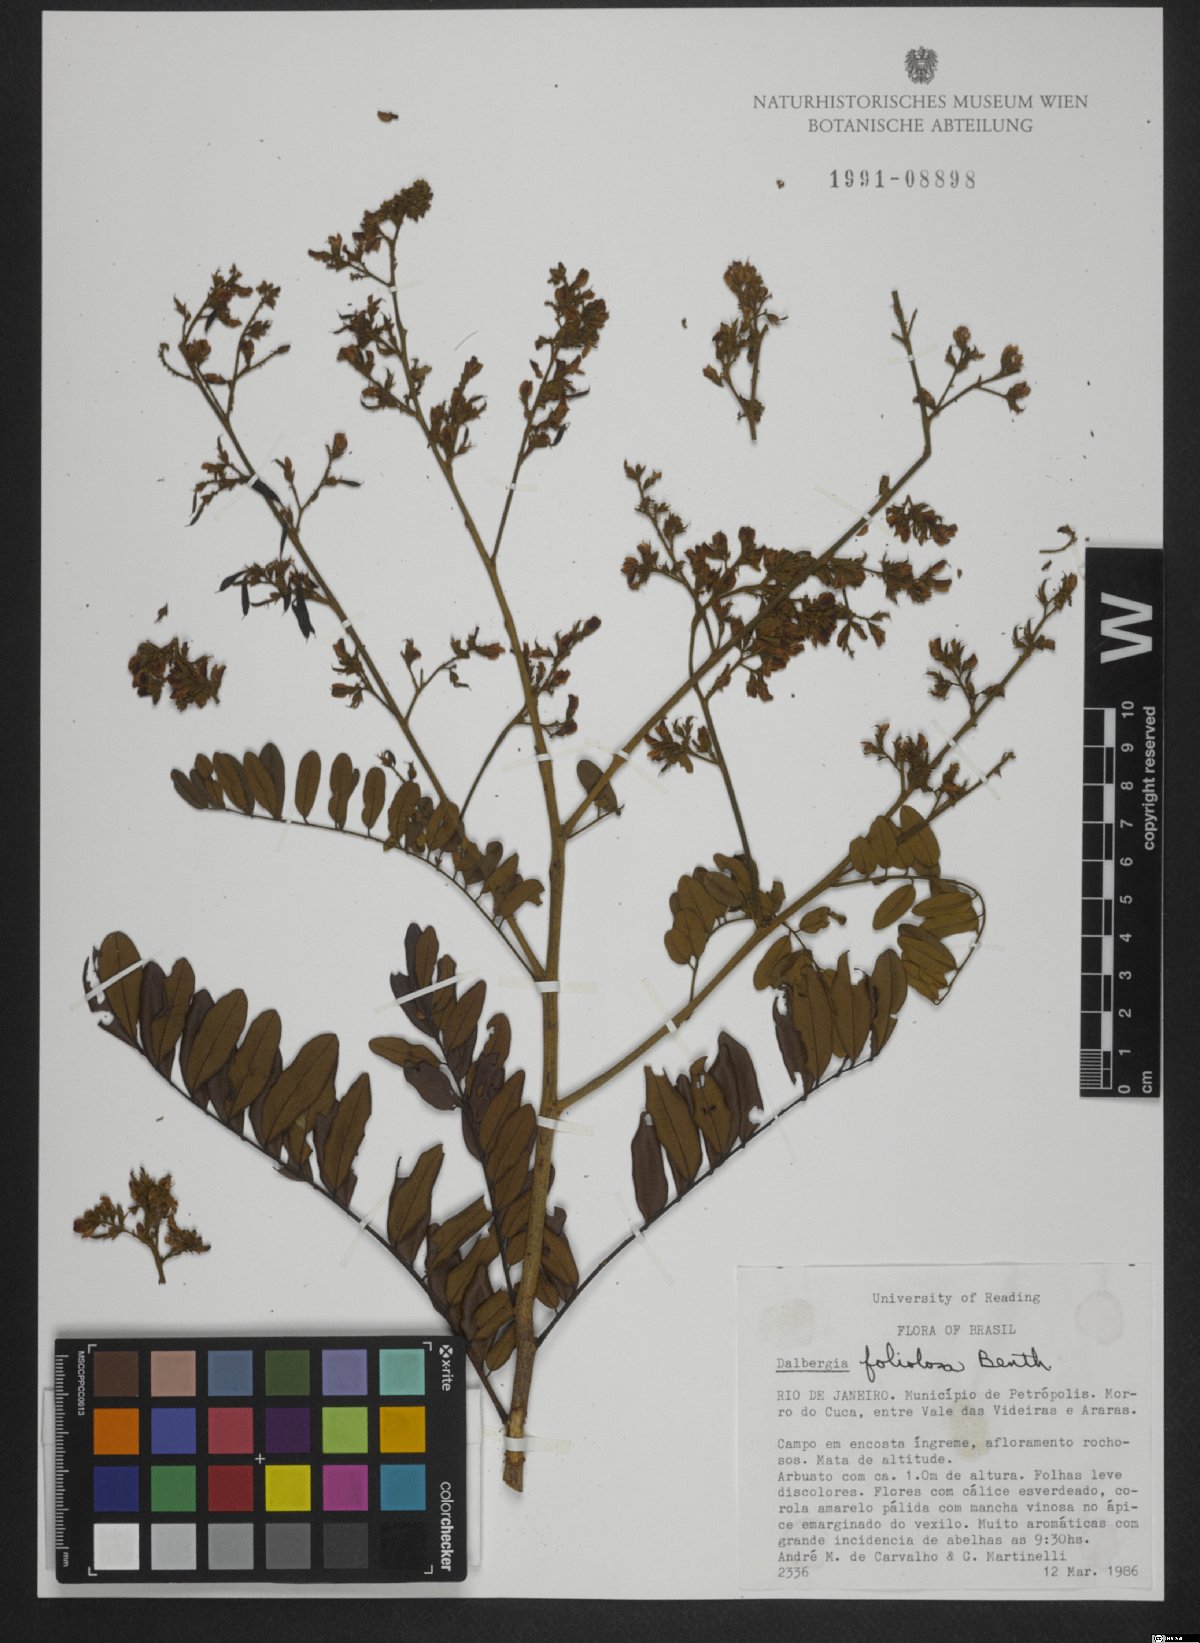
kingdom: Plantae
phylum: Tracheophyta
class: Magnoliopsida
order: Fabales
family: Fabaceae
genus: Dalbergia
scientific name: Dalbergia atropurpurea
